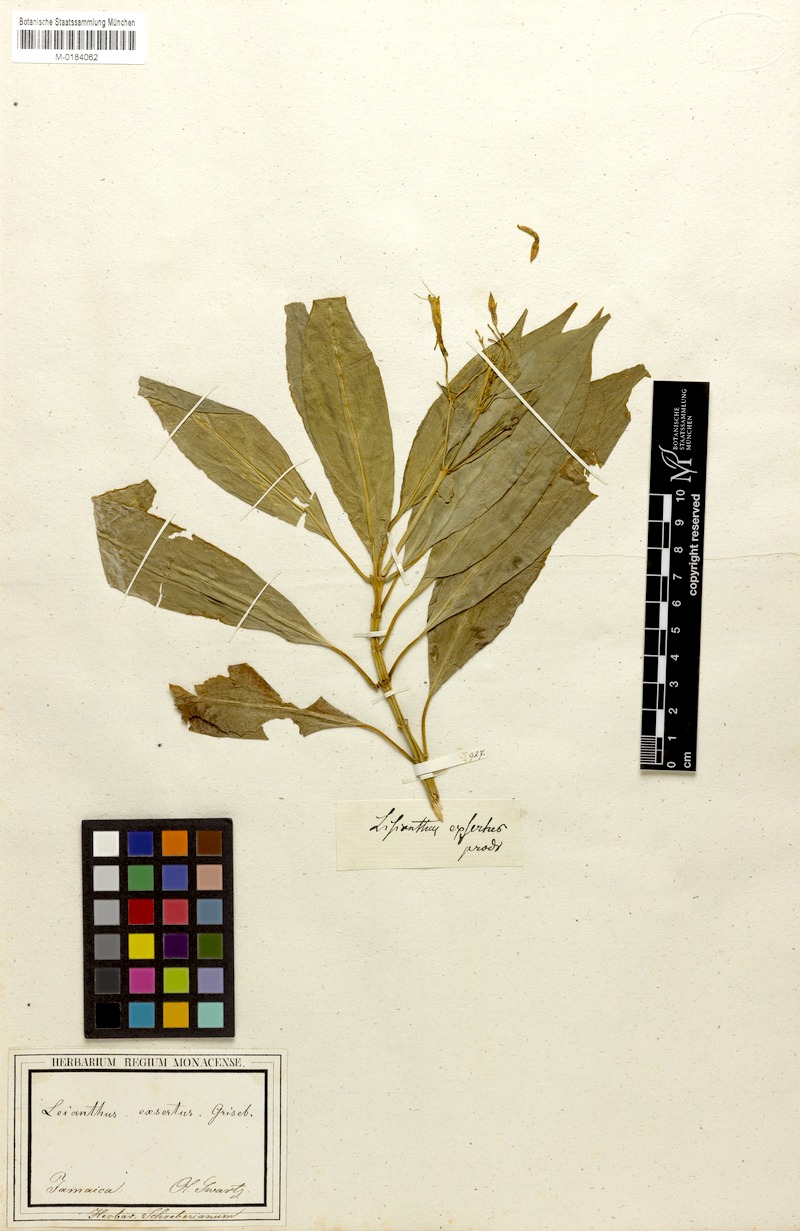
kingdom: Plantae
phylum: Tracheophyta
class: Magnoliopsida
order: Gentianales
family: Gentianaceae
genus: Lisianthus
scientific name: Lisianthus exsertus
